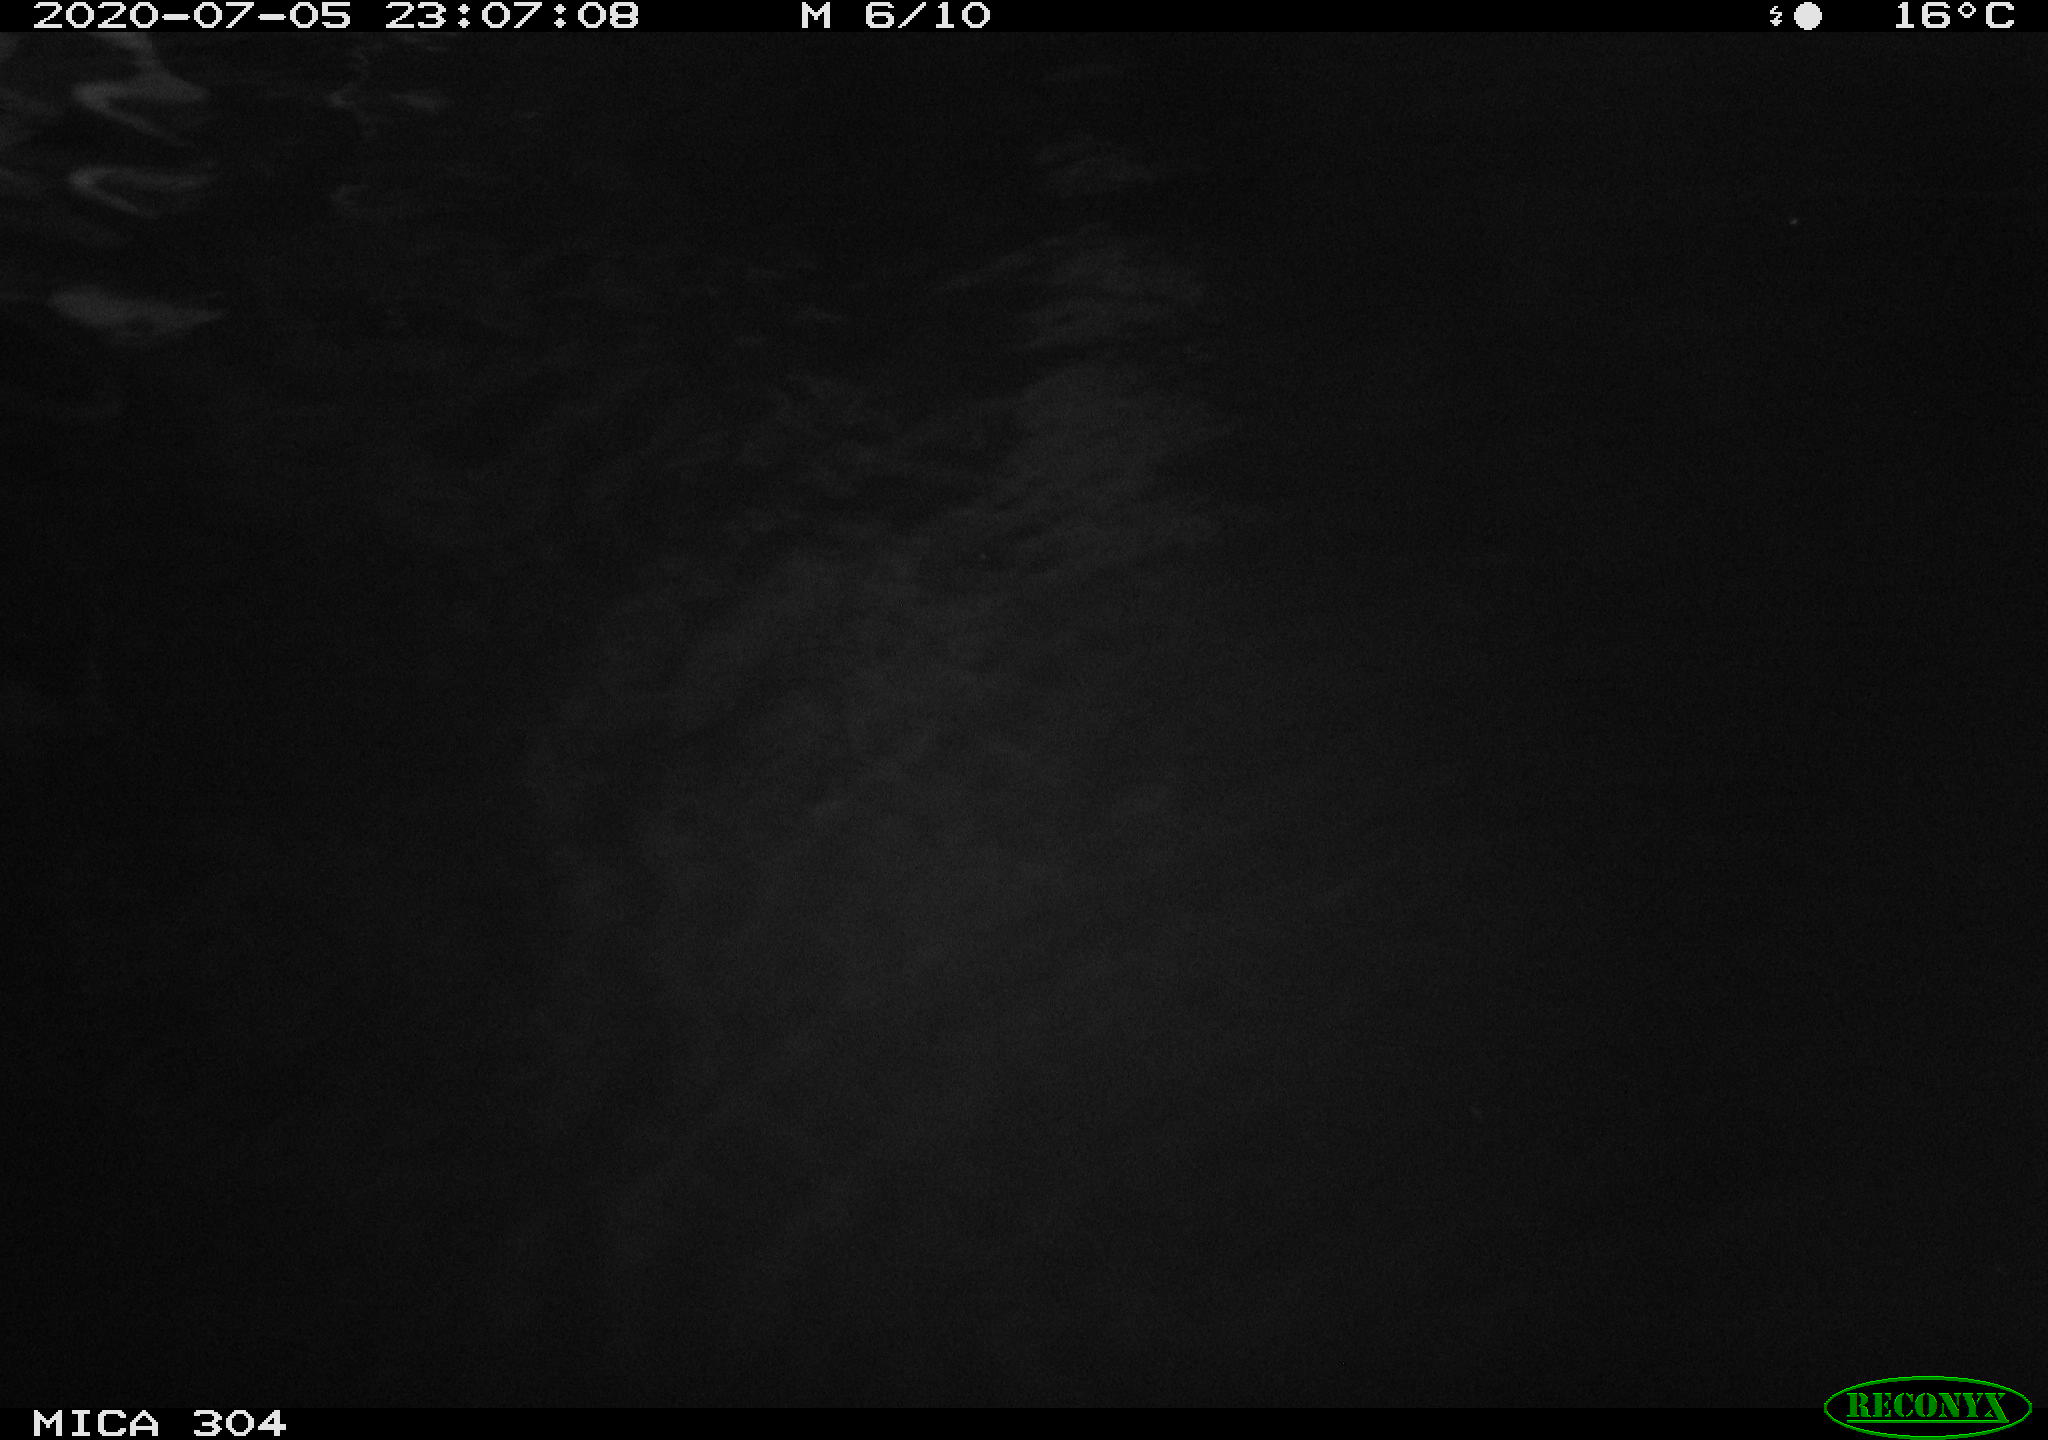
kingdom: Animalia
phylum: Chordata
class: Mammalia
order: Rodentia
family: Cricetidae
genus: Ondatra
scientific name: Ondatra zibethicus
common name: Muskrat
